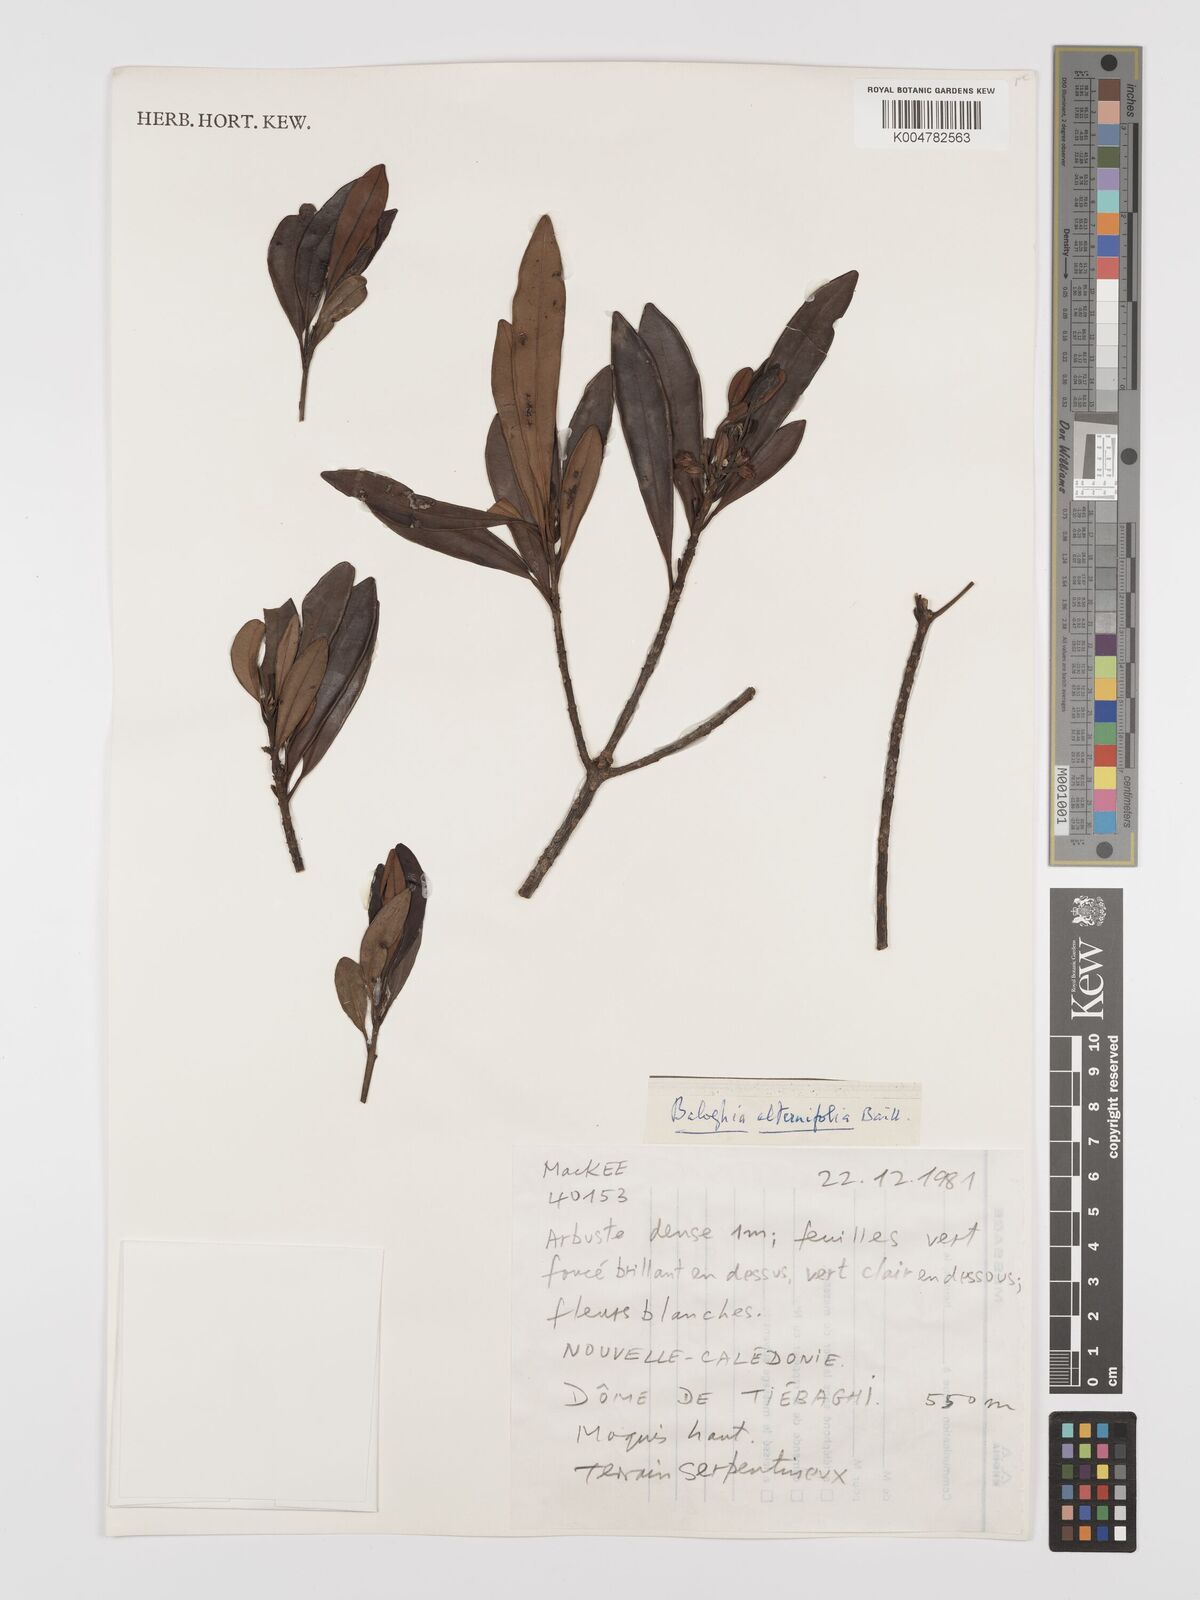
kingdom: Plantae
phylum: Tracheophyta
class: Magnoliopsida
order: Malpighiales
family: Euphorbiaceae
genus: Baloghia
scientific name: Baloghia alternifolia
